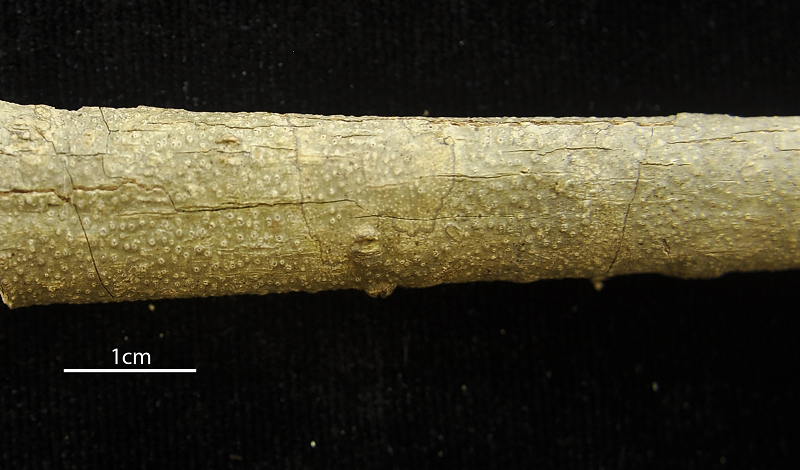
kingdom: Fungi
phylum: Ascomycota
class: Lecanoromycetes
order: Ostropales
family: Graphidaceae
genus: Ocellularia
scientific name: Ocellularia perforata
